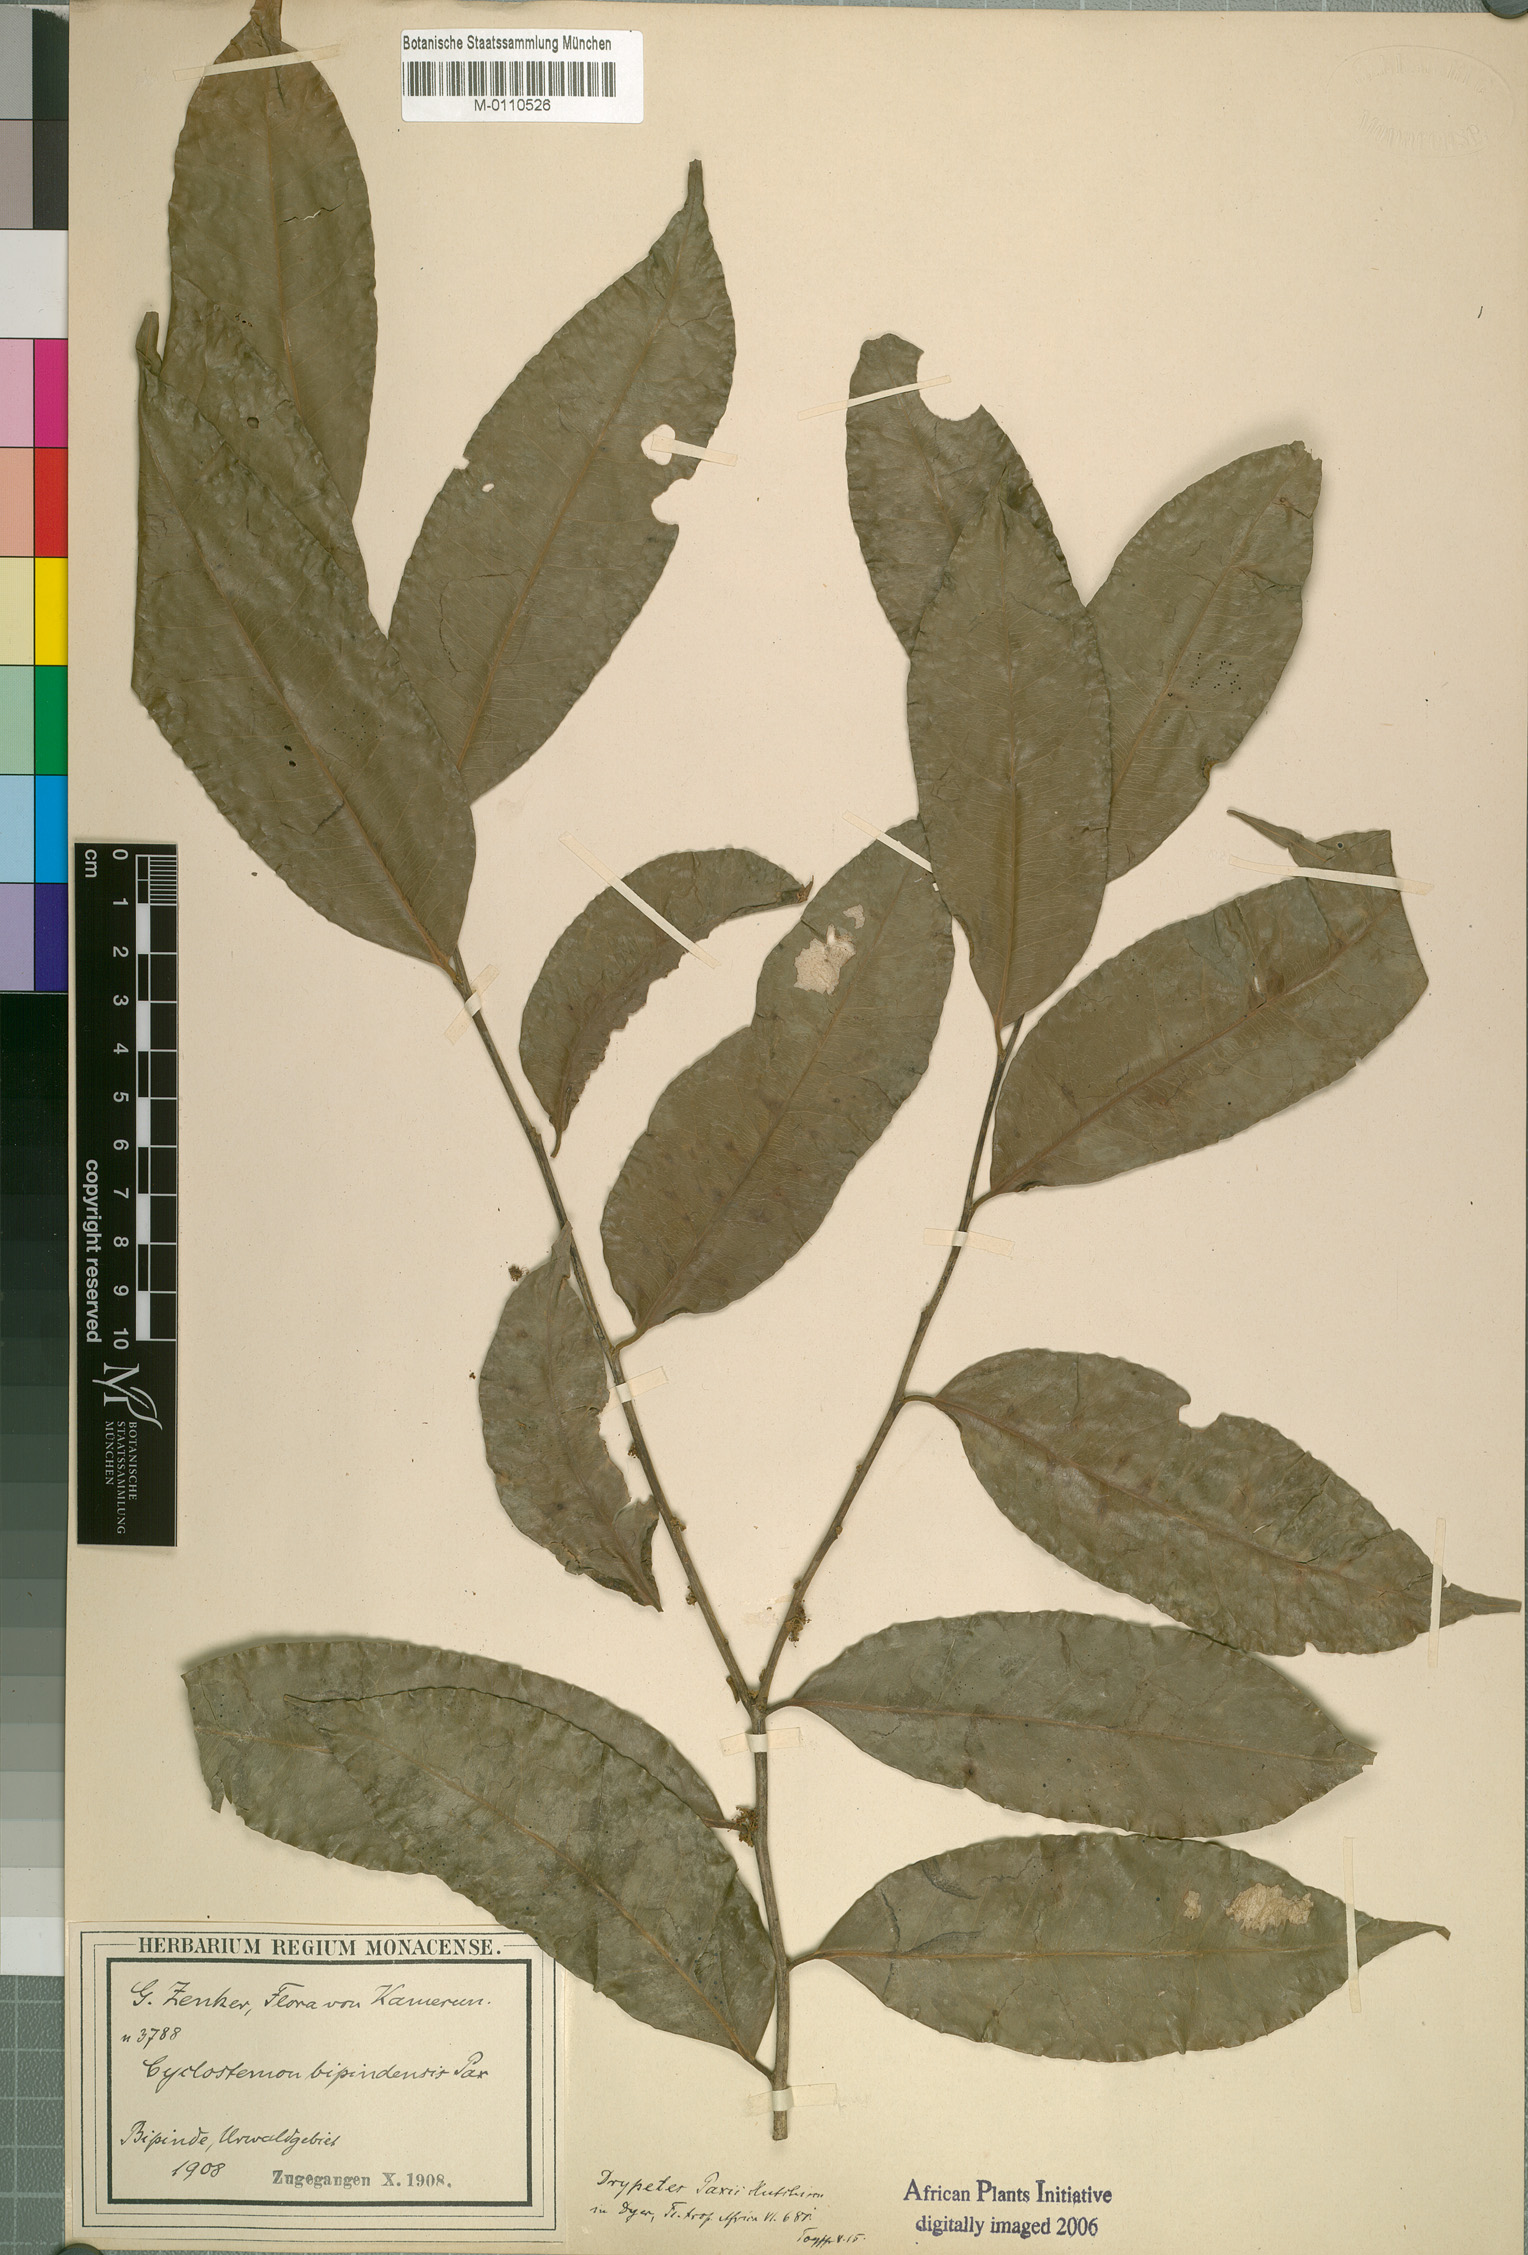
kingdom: Plantae
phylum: Tracheophyta
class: Magnoliopsida
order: Malpighiales
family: Putranjivaceae
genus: Drypetes
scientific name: Drypetes paxii
